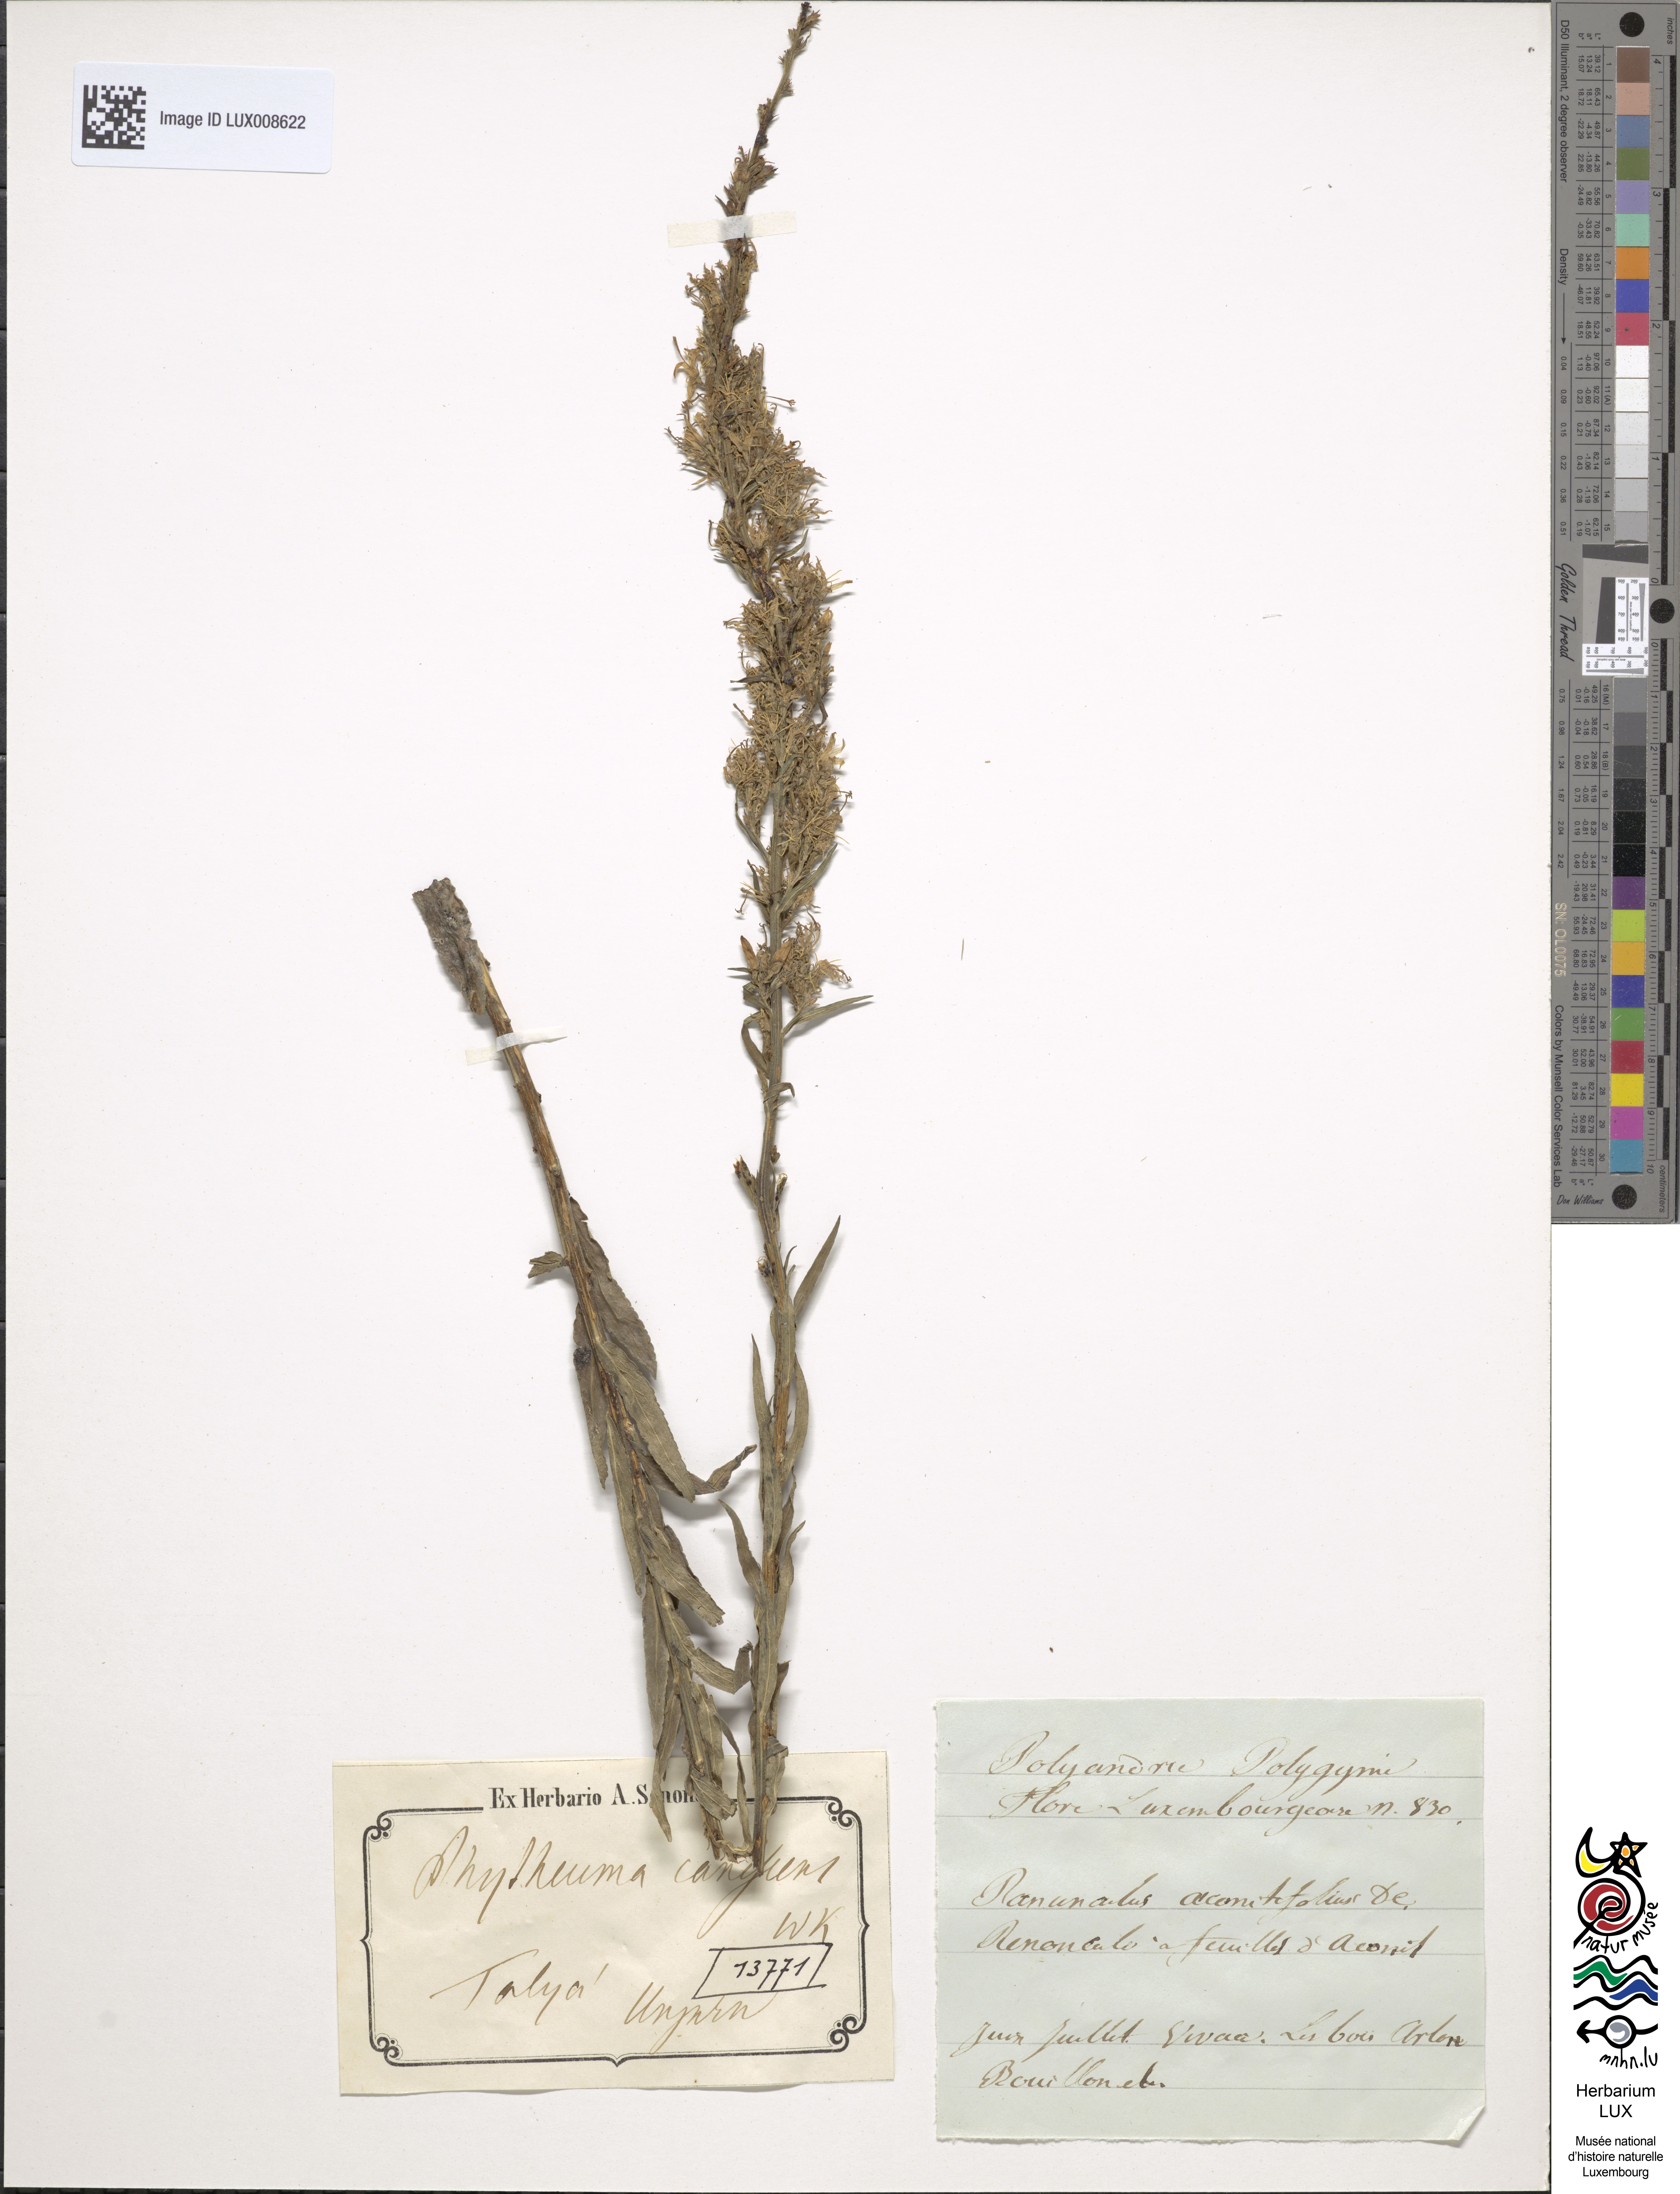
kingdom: Plantae
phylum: Tracheophyta
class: Magnoliopsida
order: Asterales
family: Campanulaceae
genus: Asyneuma
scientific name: Asyneuma canescens
